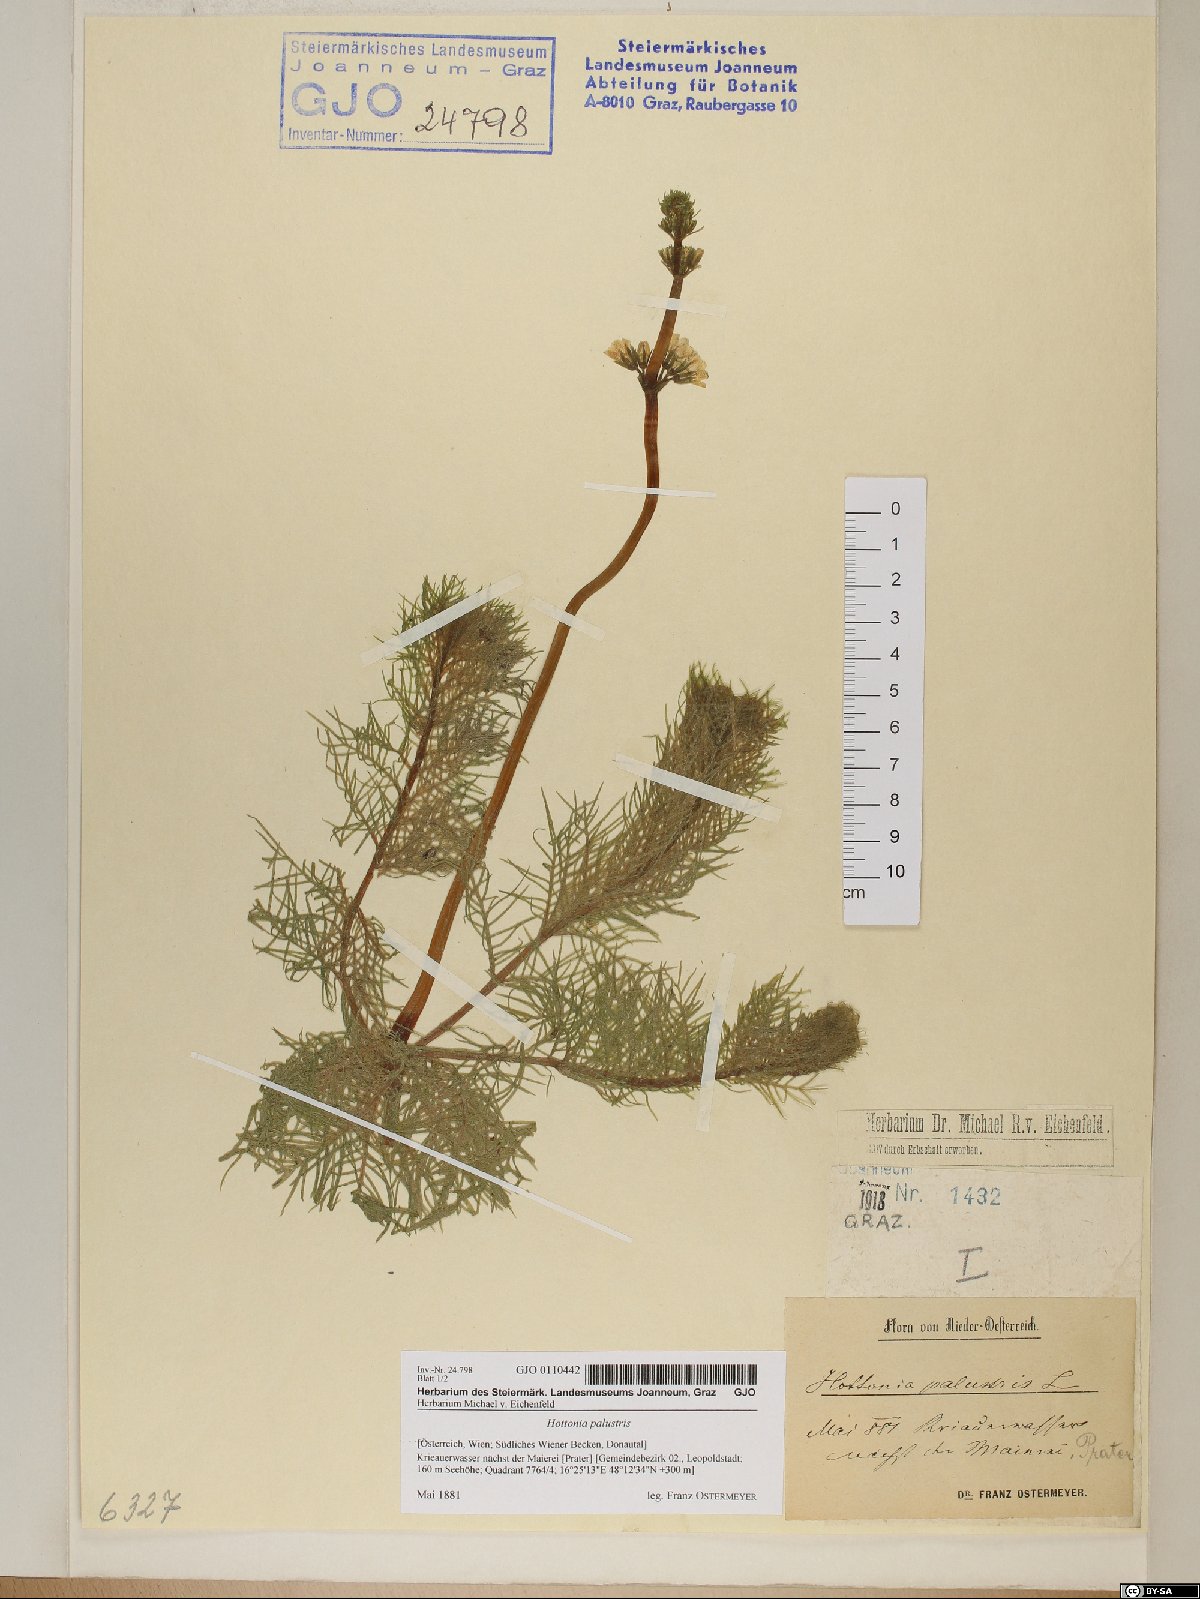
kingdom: Plantae
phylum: Tracheophyta
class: Magnoliopsida
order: Ericales
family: Primulaceae
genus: Hottonia
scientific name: Hottonia palustris
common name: Water-violet
